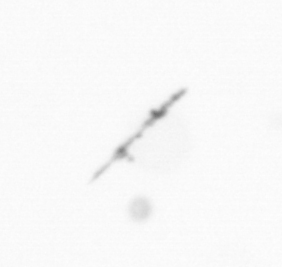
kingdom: Chromista
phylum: Ochrophyta
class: Bacillariophyceae
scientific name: Bacillariophyceae
